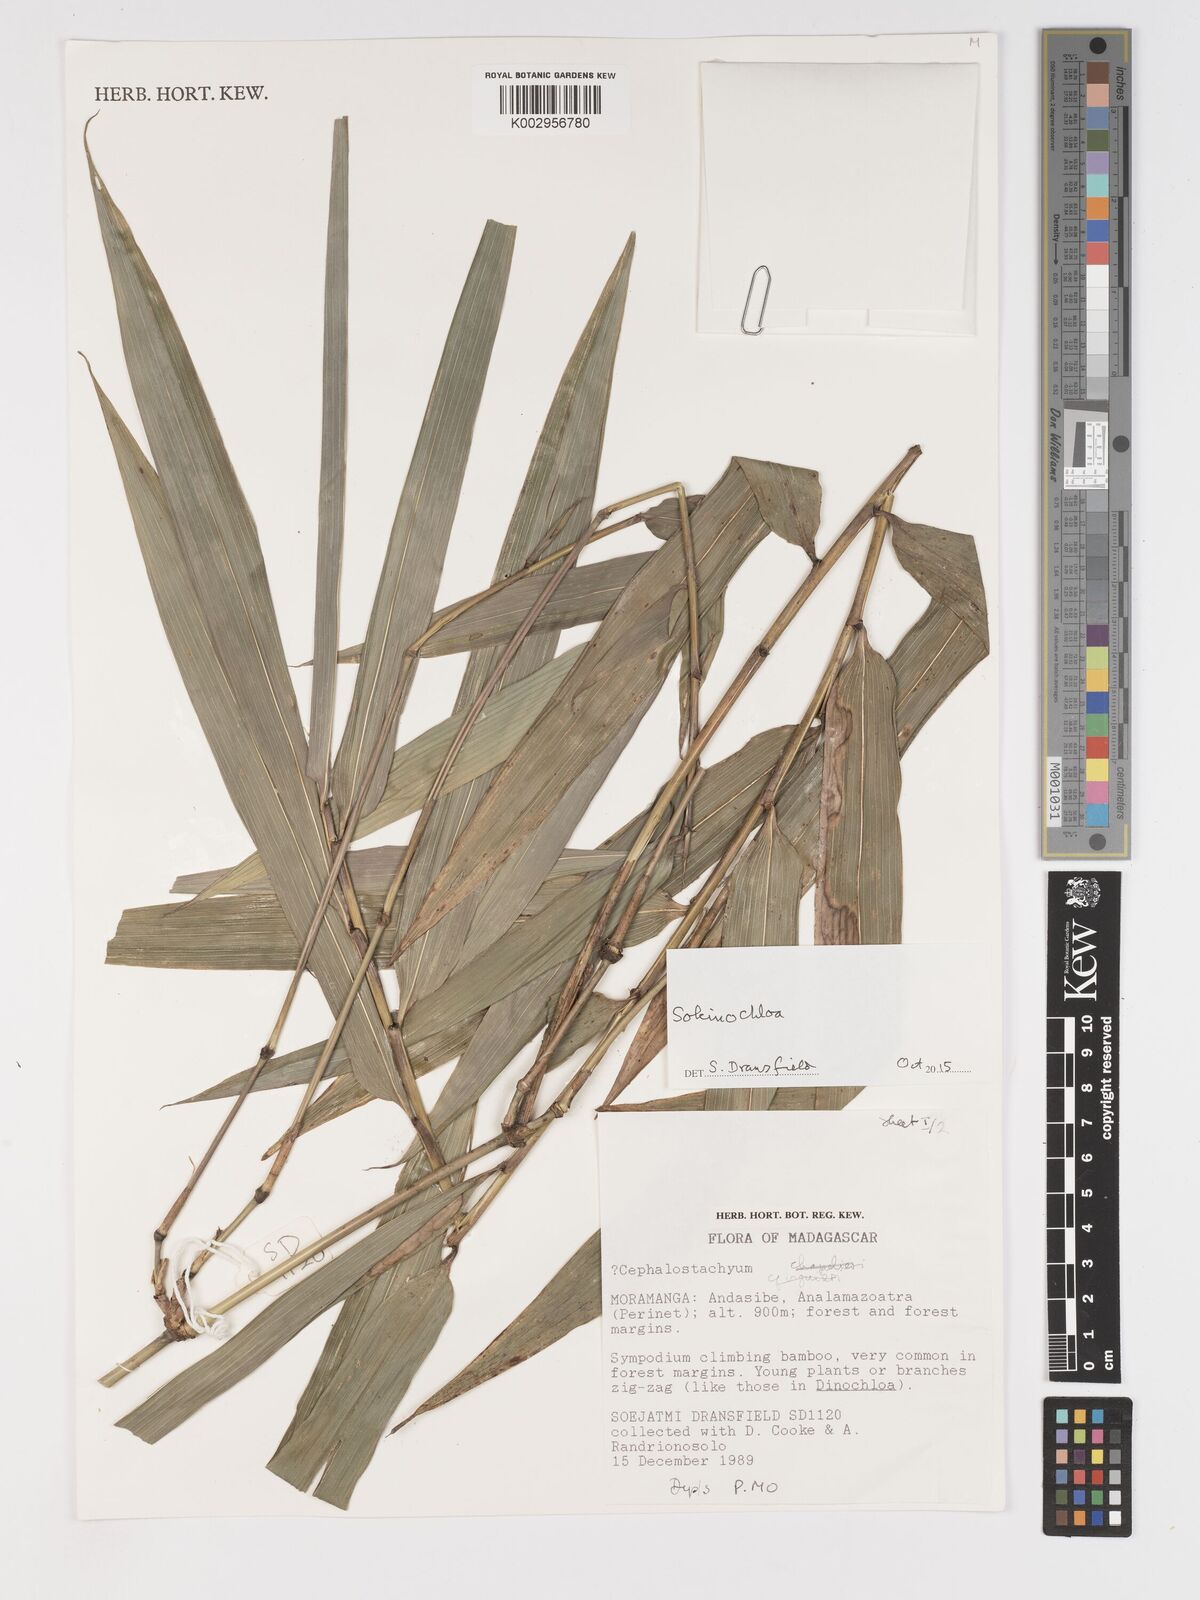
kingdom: Plantae
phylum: Tracheophyta
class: Liliopsida
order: Poales
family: Poaceae
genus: Sokinochloa
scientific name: Sokinochloa
